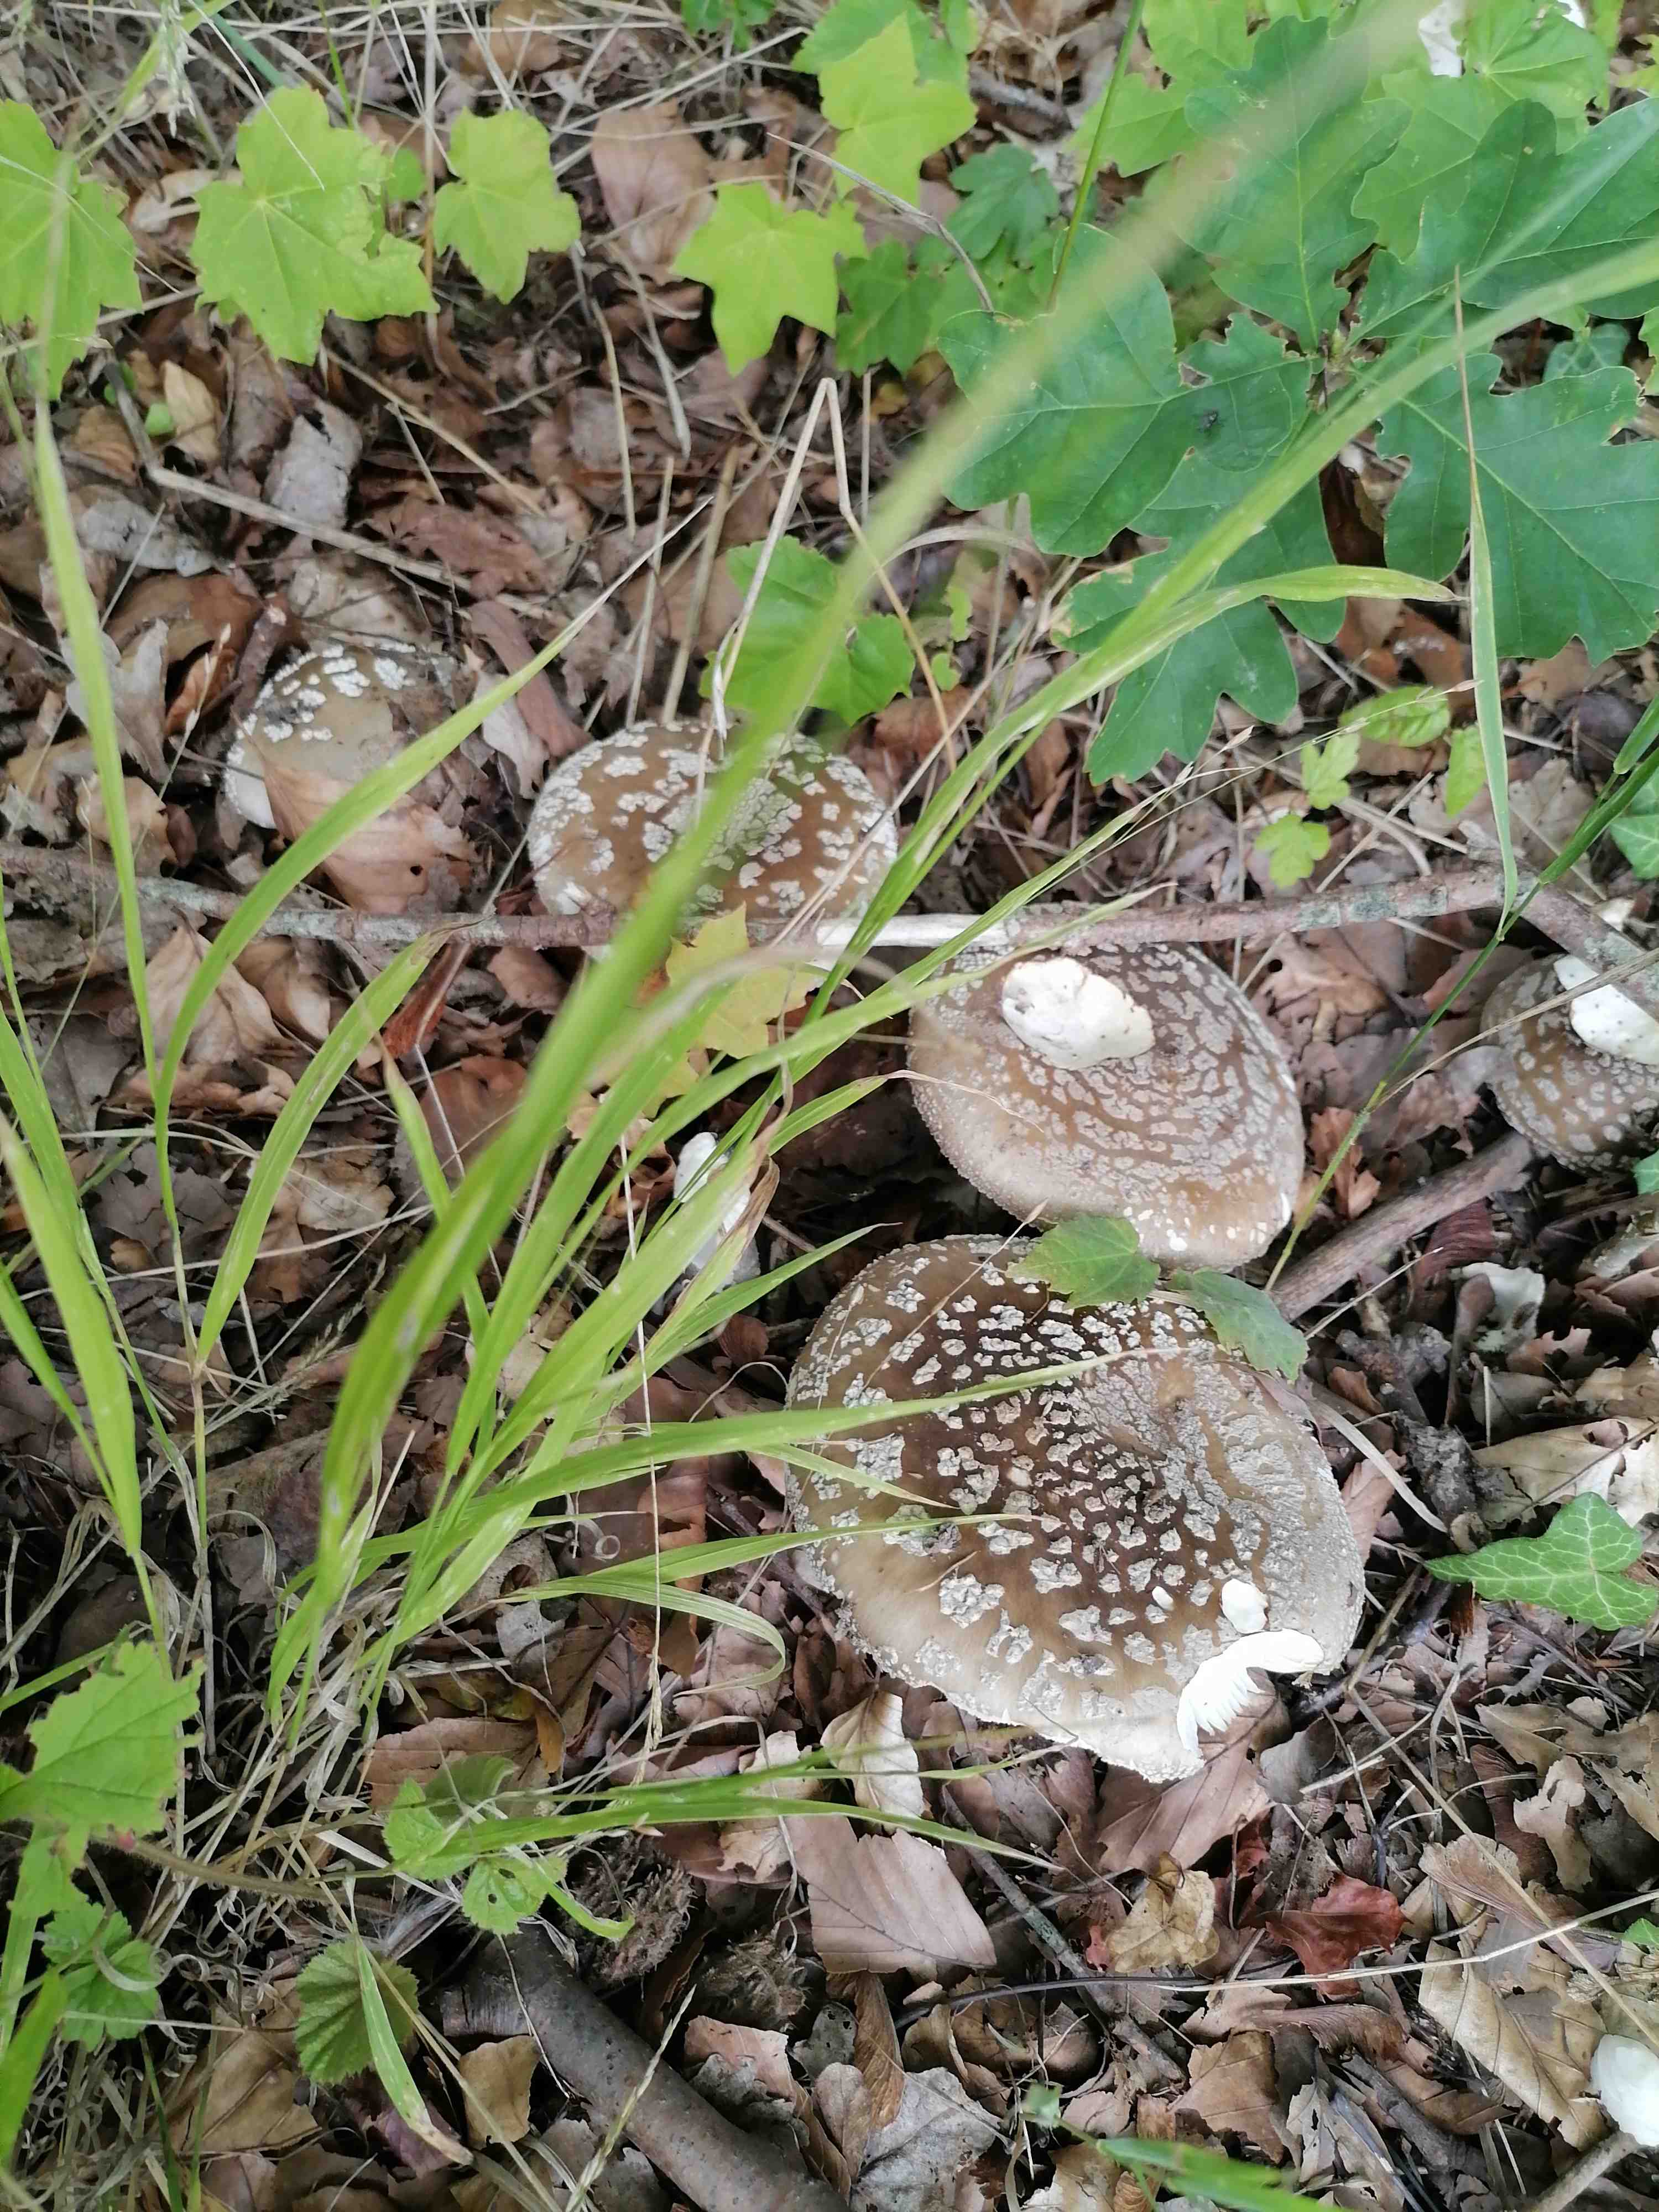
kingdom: Fungi
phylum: Basidiomycota
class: Agaricomycetes
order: Agaricales
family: Amanitaceae
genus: Amanita
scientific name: Amanita
